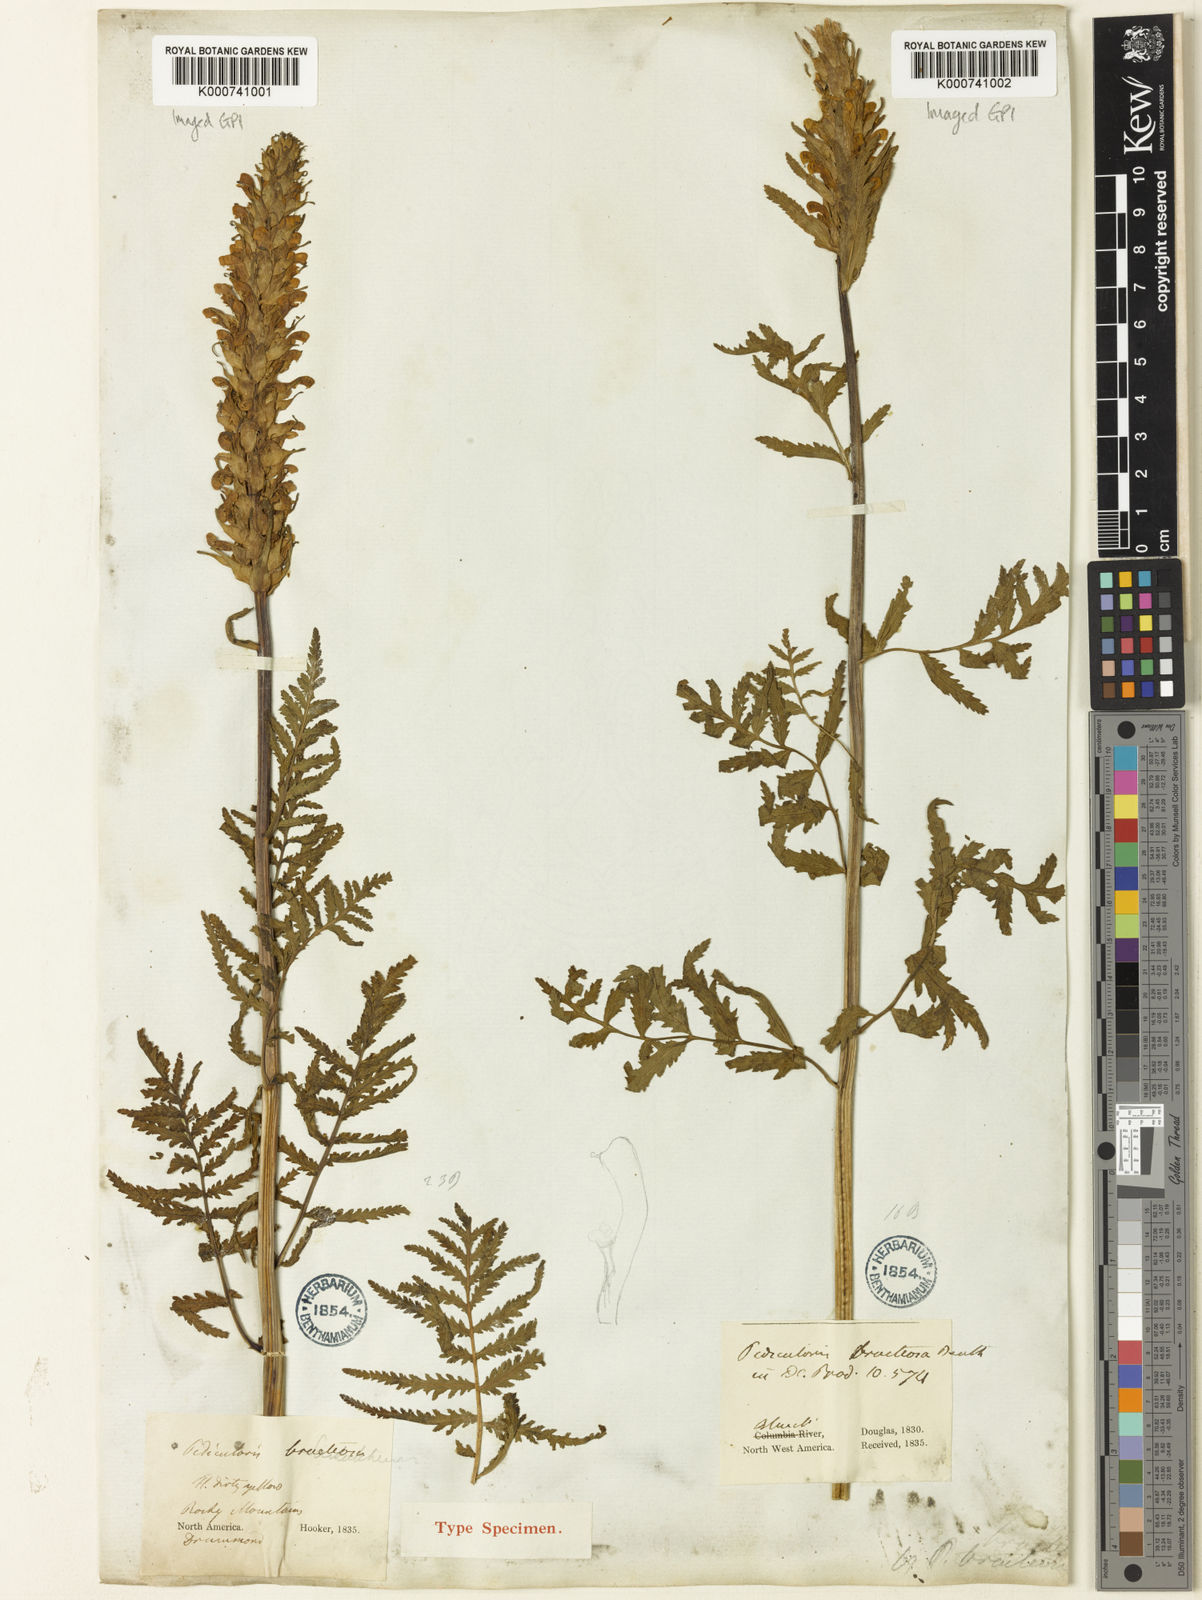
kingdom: Plantae
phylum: Tracheophyta
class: Magnoliopsida
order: Lamiales
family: Orobanchaceae
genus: Pedicularis
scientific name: Pedicularis bracteosa
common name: Bracted lousewort
